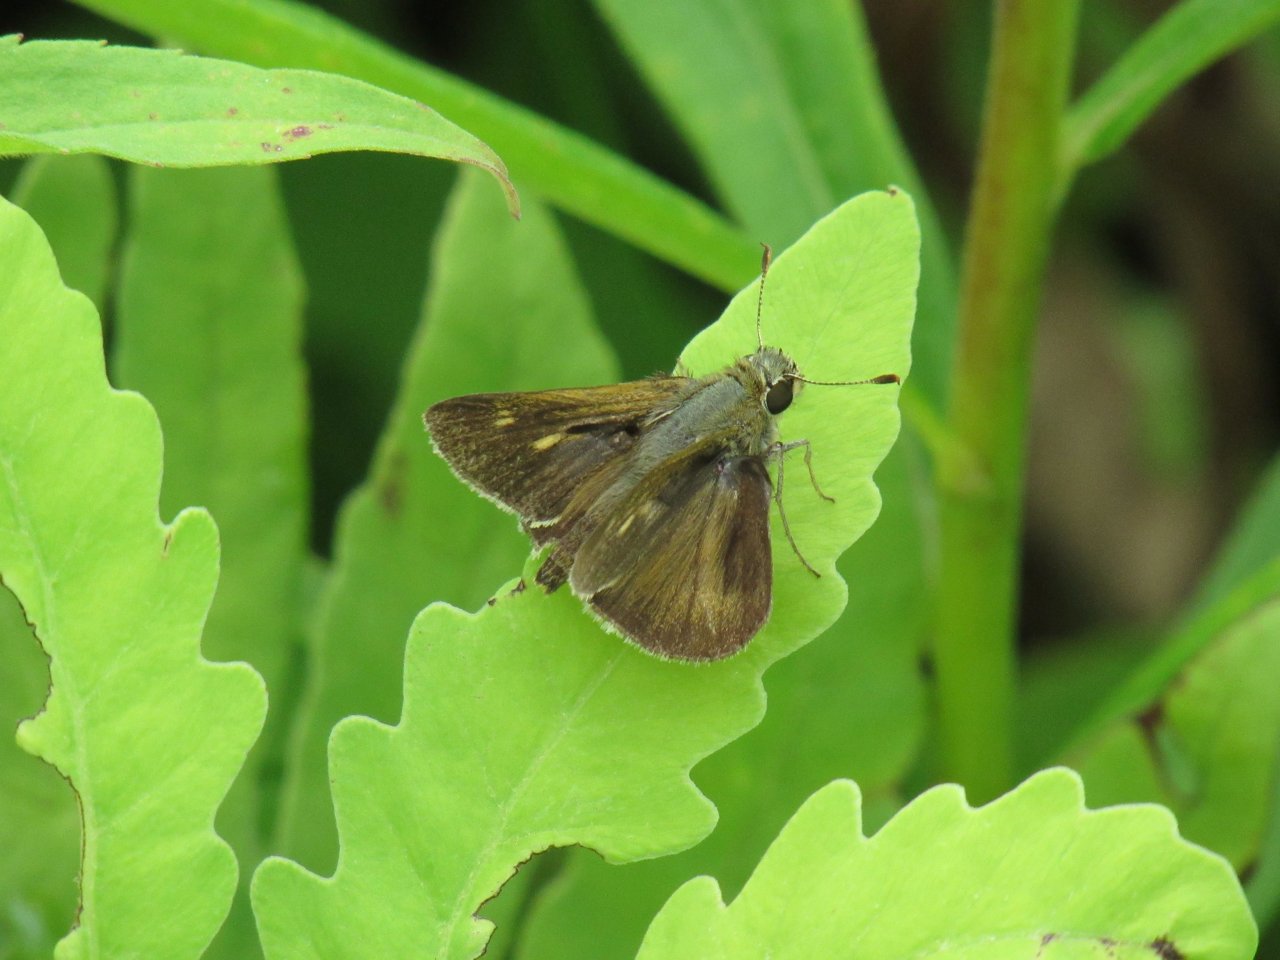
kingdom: Animalia
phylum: Arthropoda
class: Insecta
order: Lepidoptera
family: Hesperiidae
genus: Polites
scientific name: Polites egeremet
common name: Northern Broken-Dash
